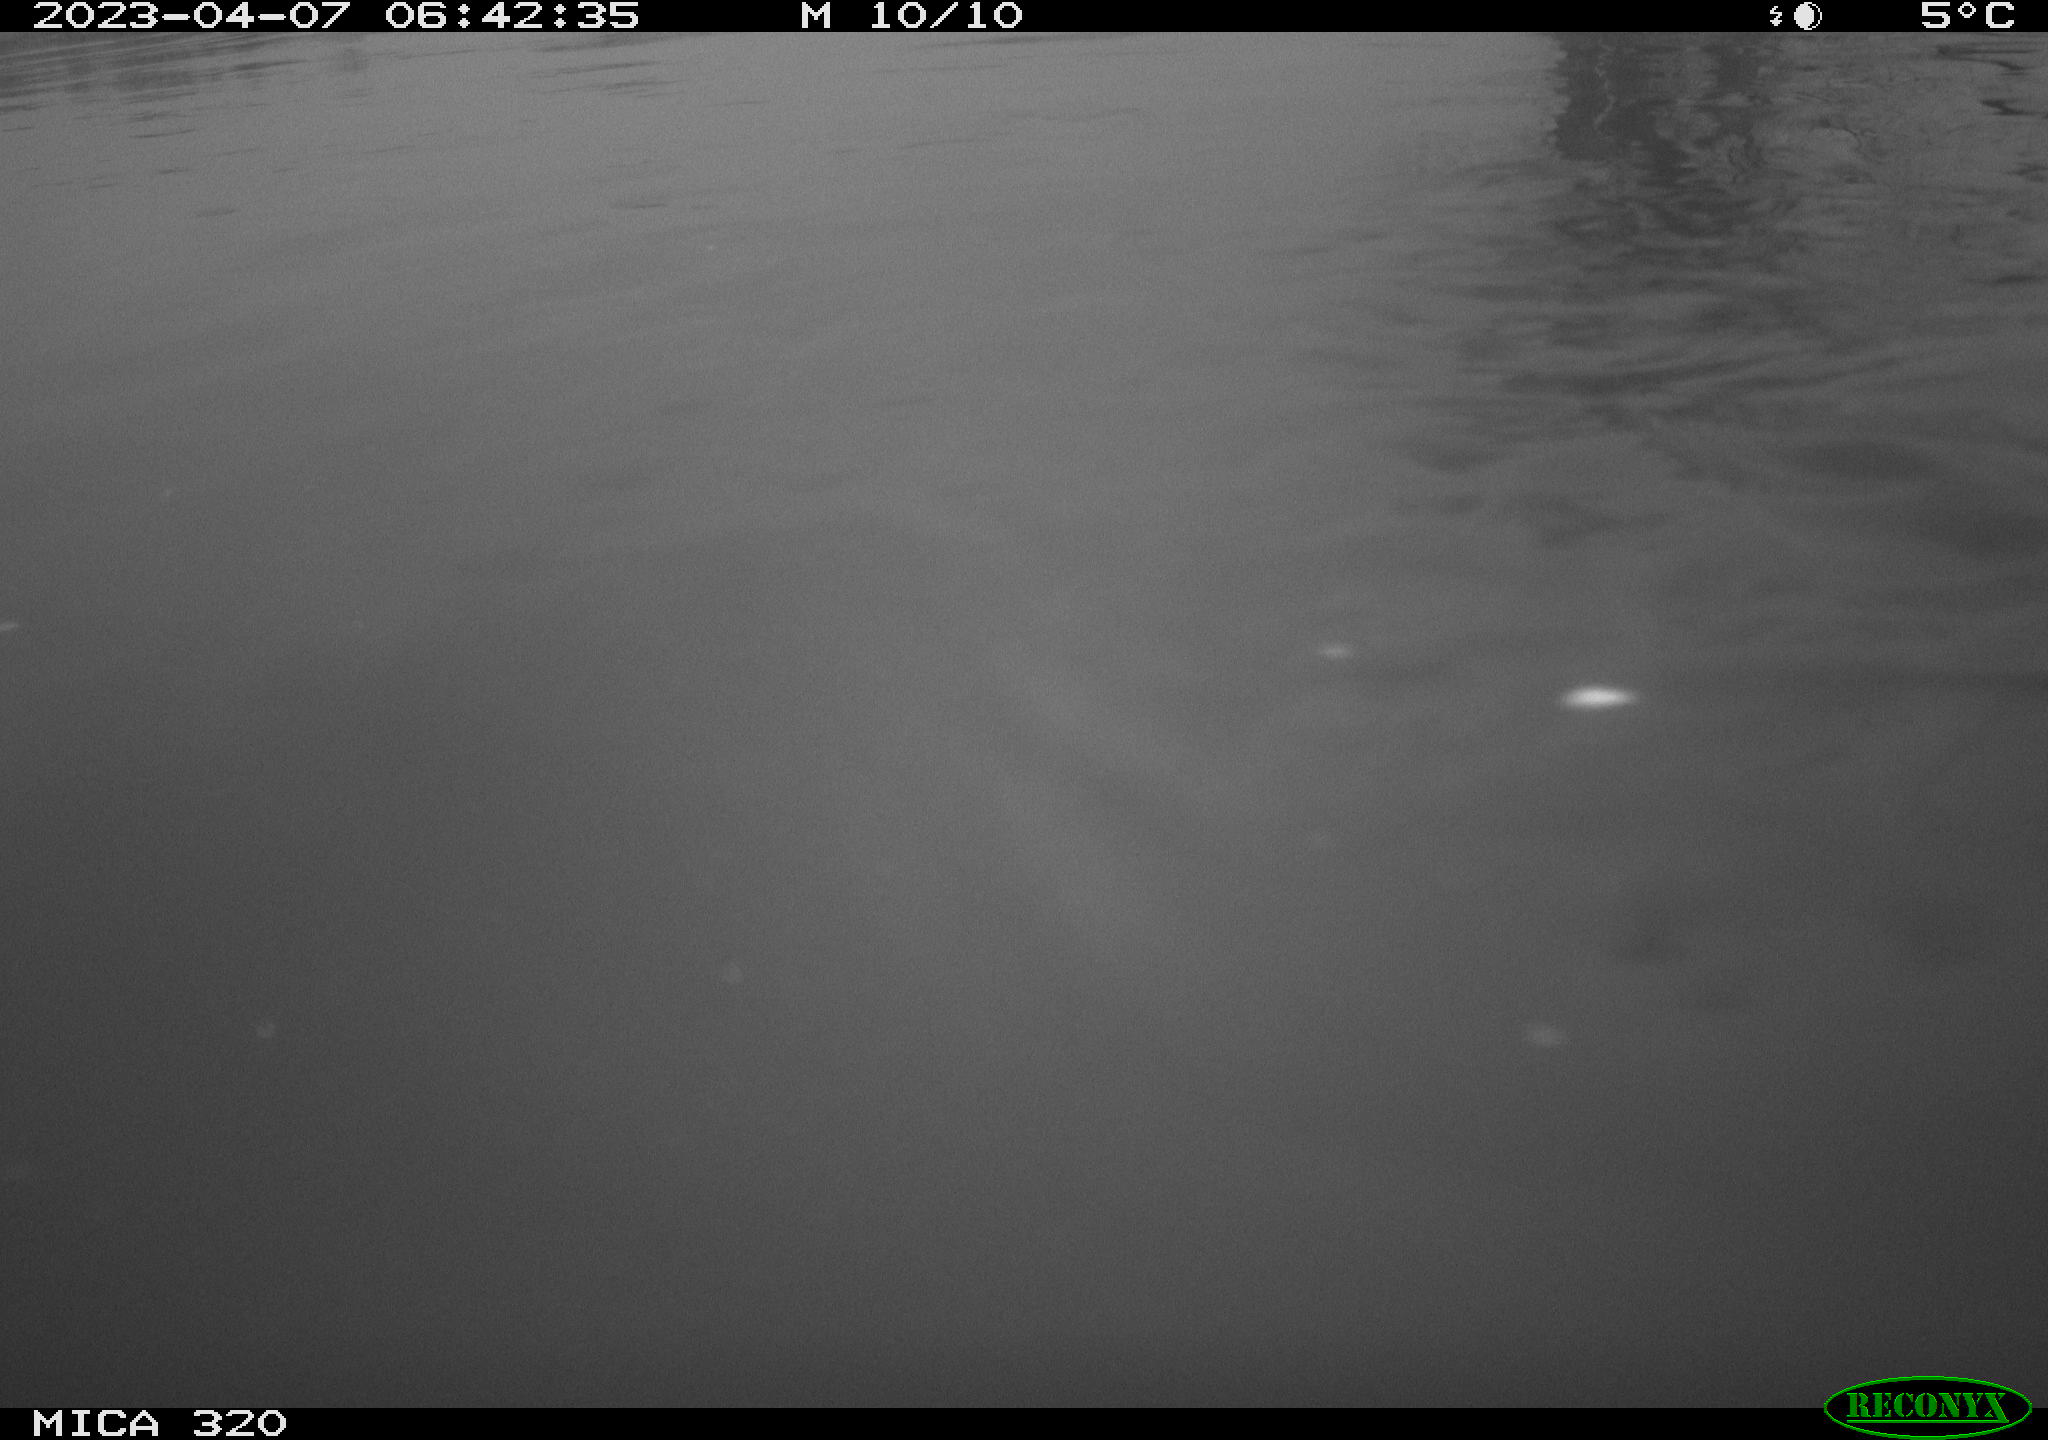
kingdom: Animalia
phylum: Chordata
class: Aves
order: Anseriformes
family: Anatidae
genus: Anas
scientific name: Anas
